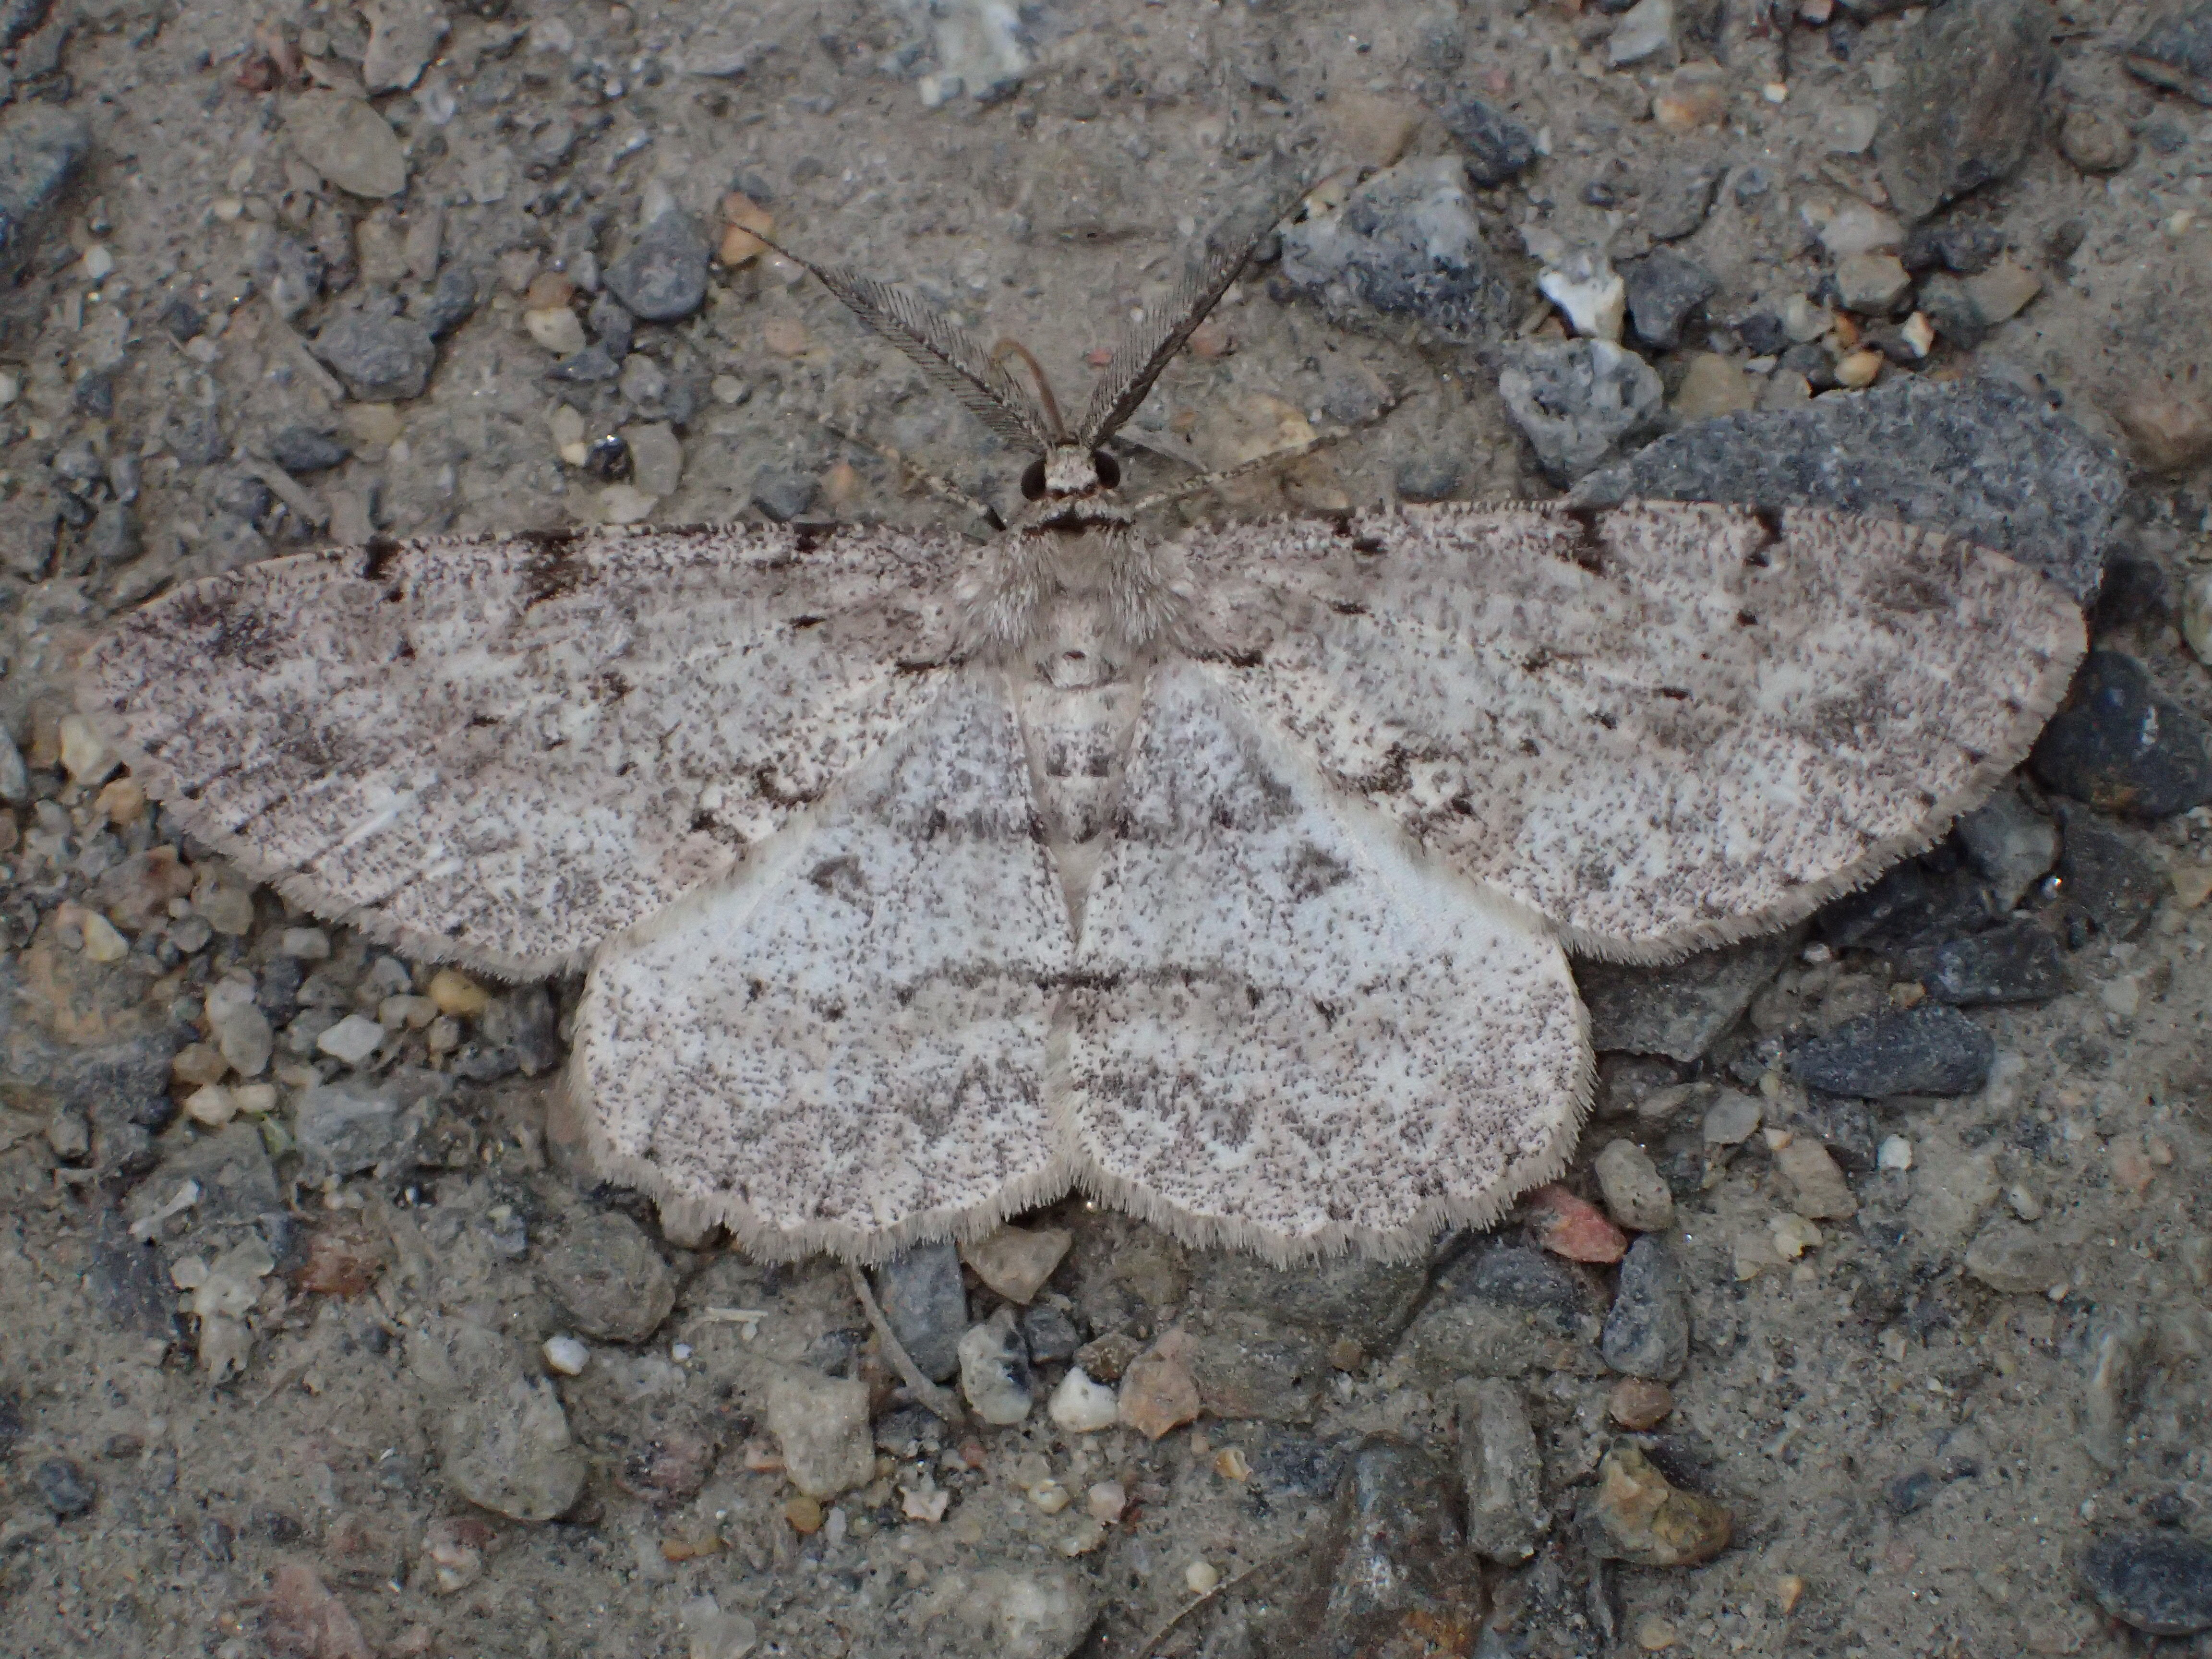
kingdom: Animalia
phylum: Arthropoda
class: Insecta
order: Lepidoptera
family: Geometridae
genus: Hypomecis
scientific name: Hypomecis roboraria
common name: Great oak beauty
